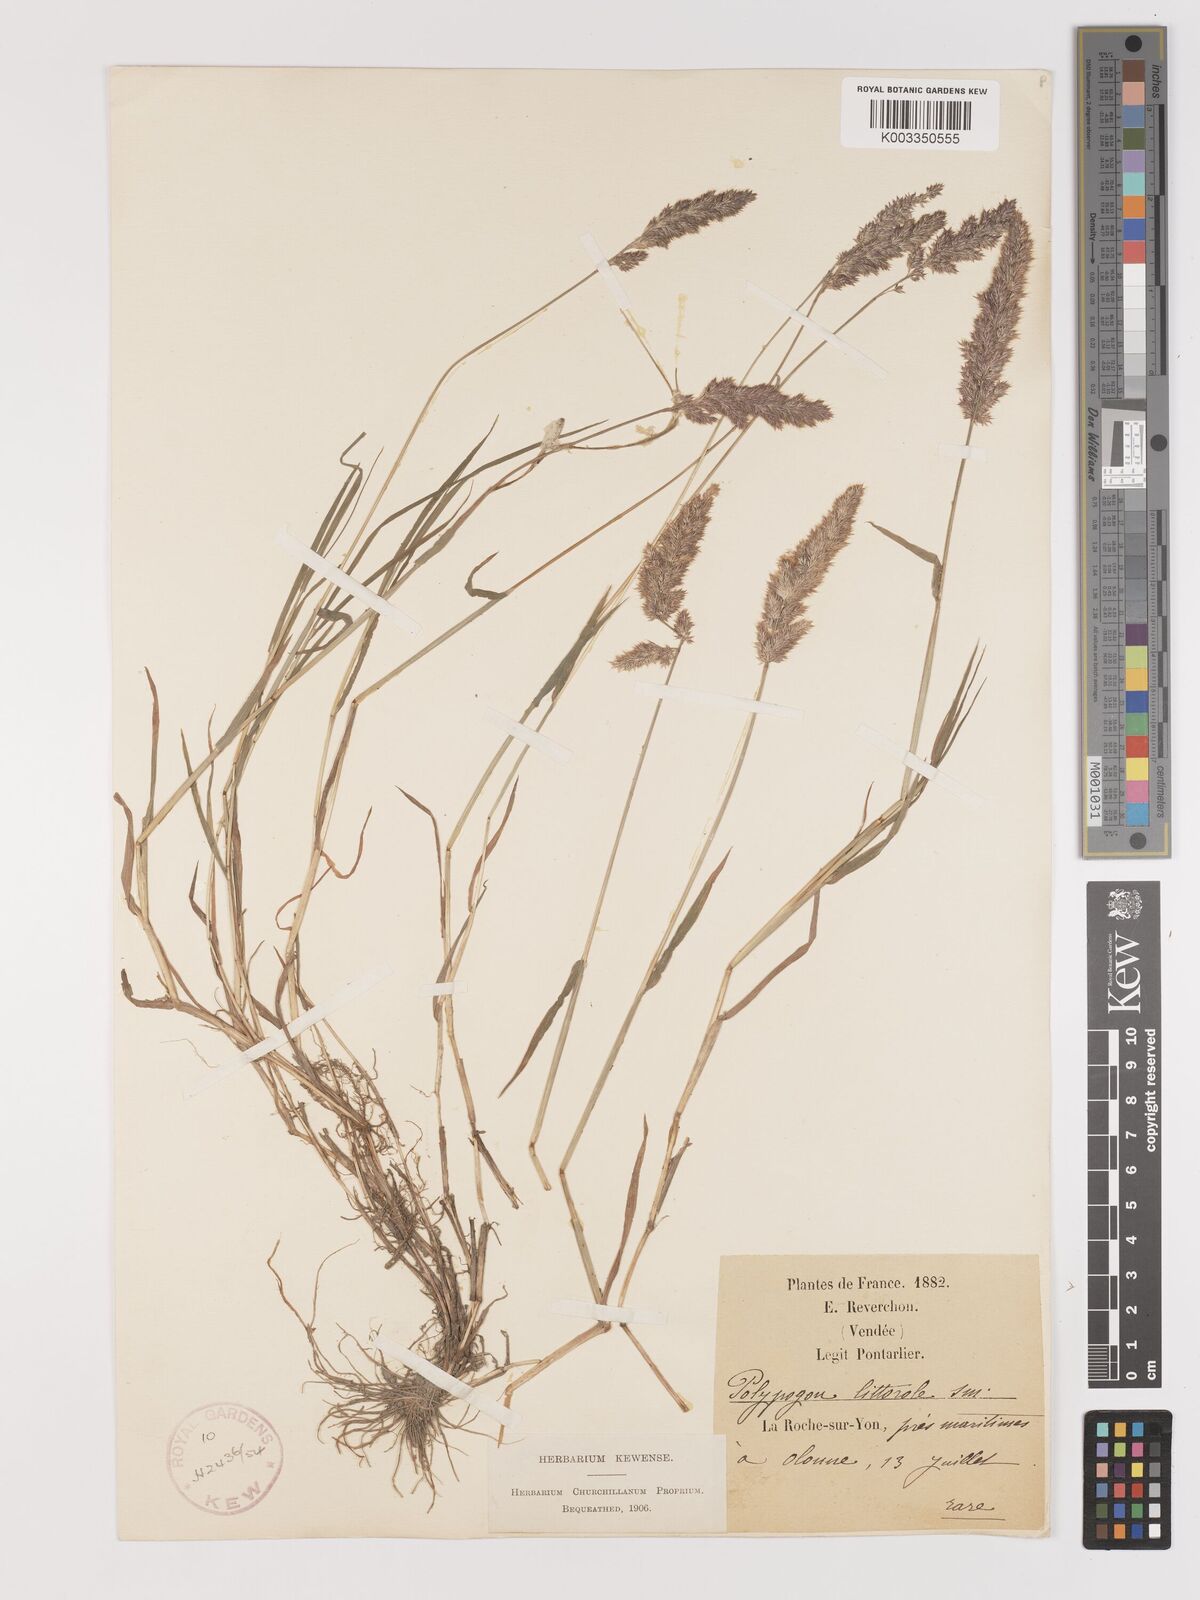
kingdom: Plantae
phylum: Tracheophyta
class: Liliopsida
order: Poales
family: Poaceae
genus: Agropogon
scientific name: Agropogon lutosus
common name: Coast agropogon
